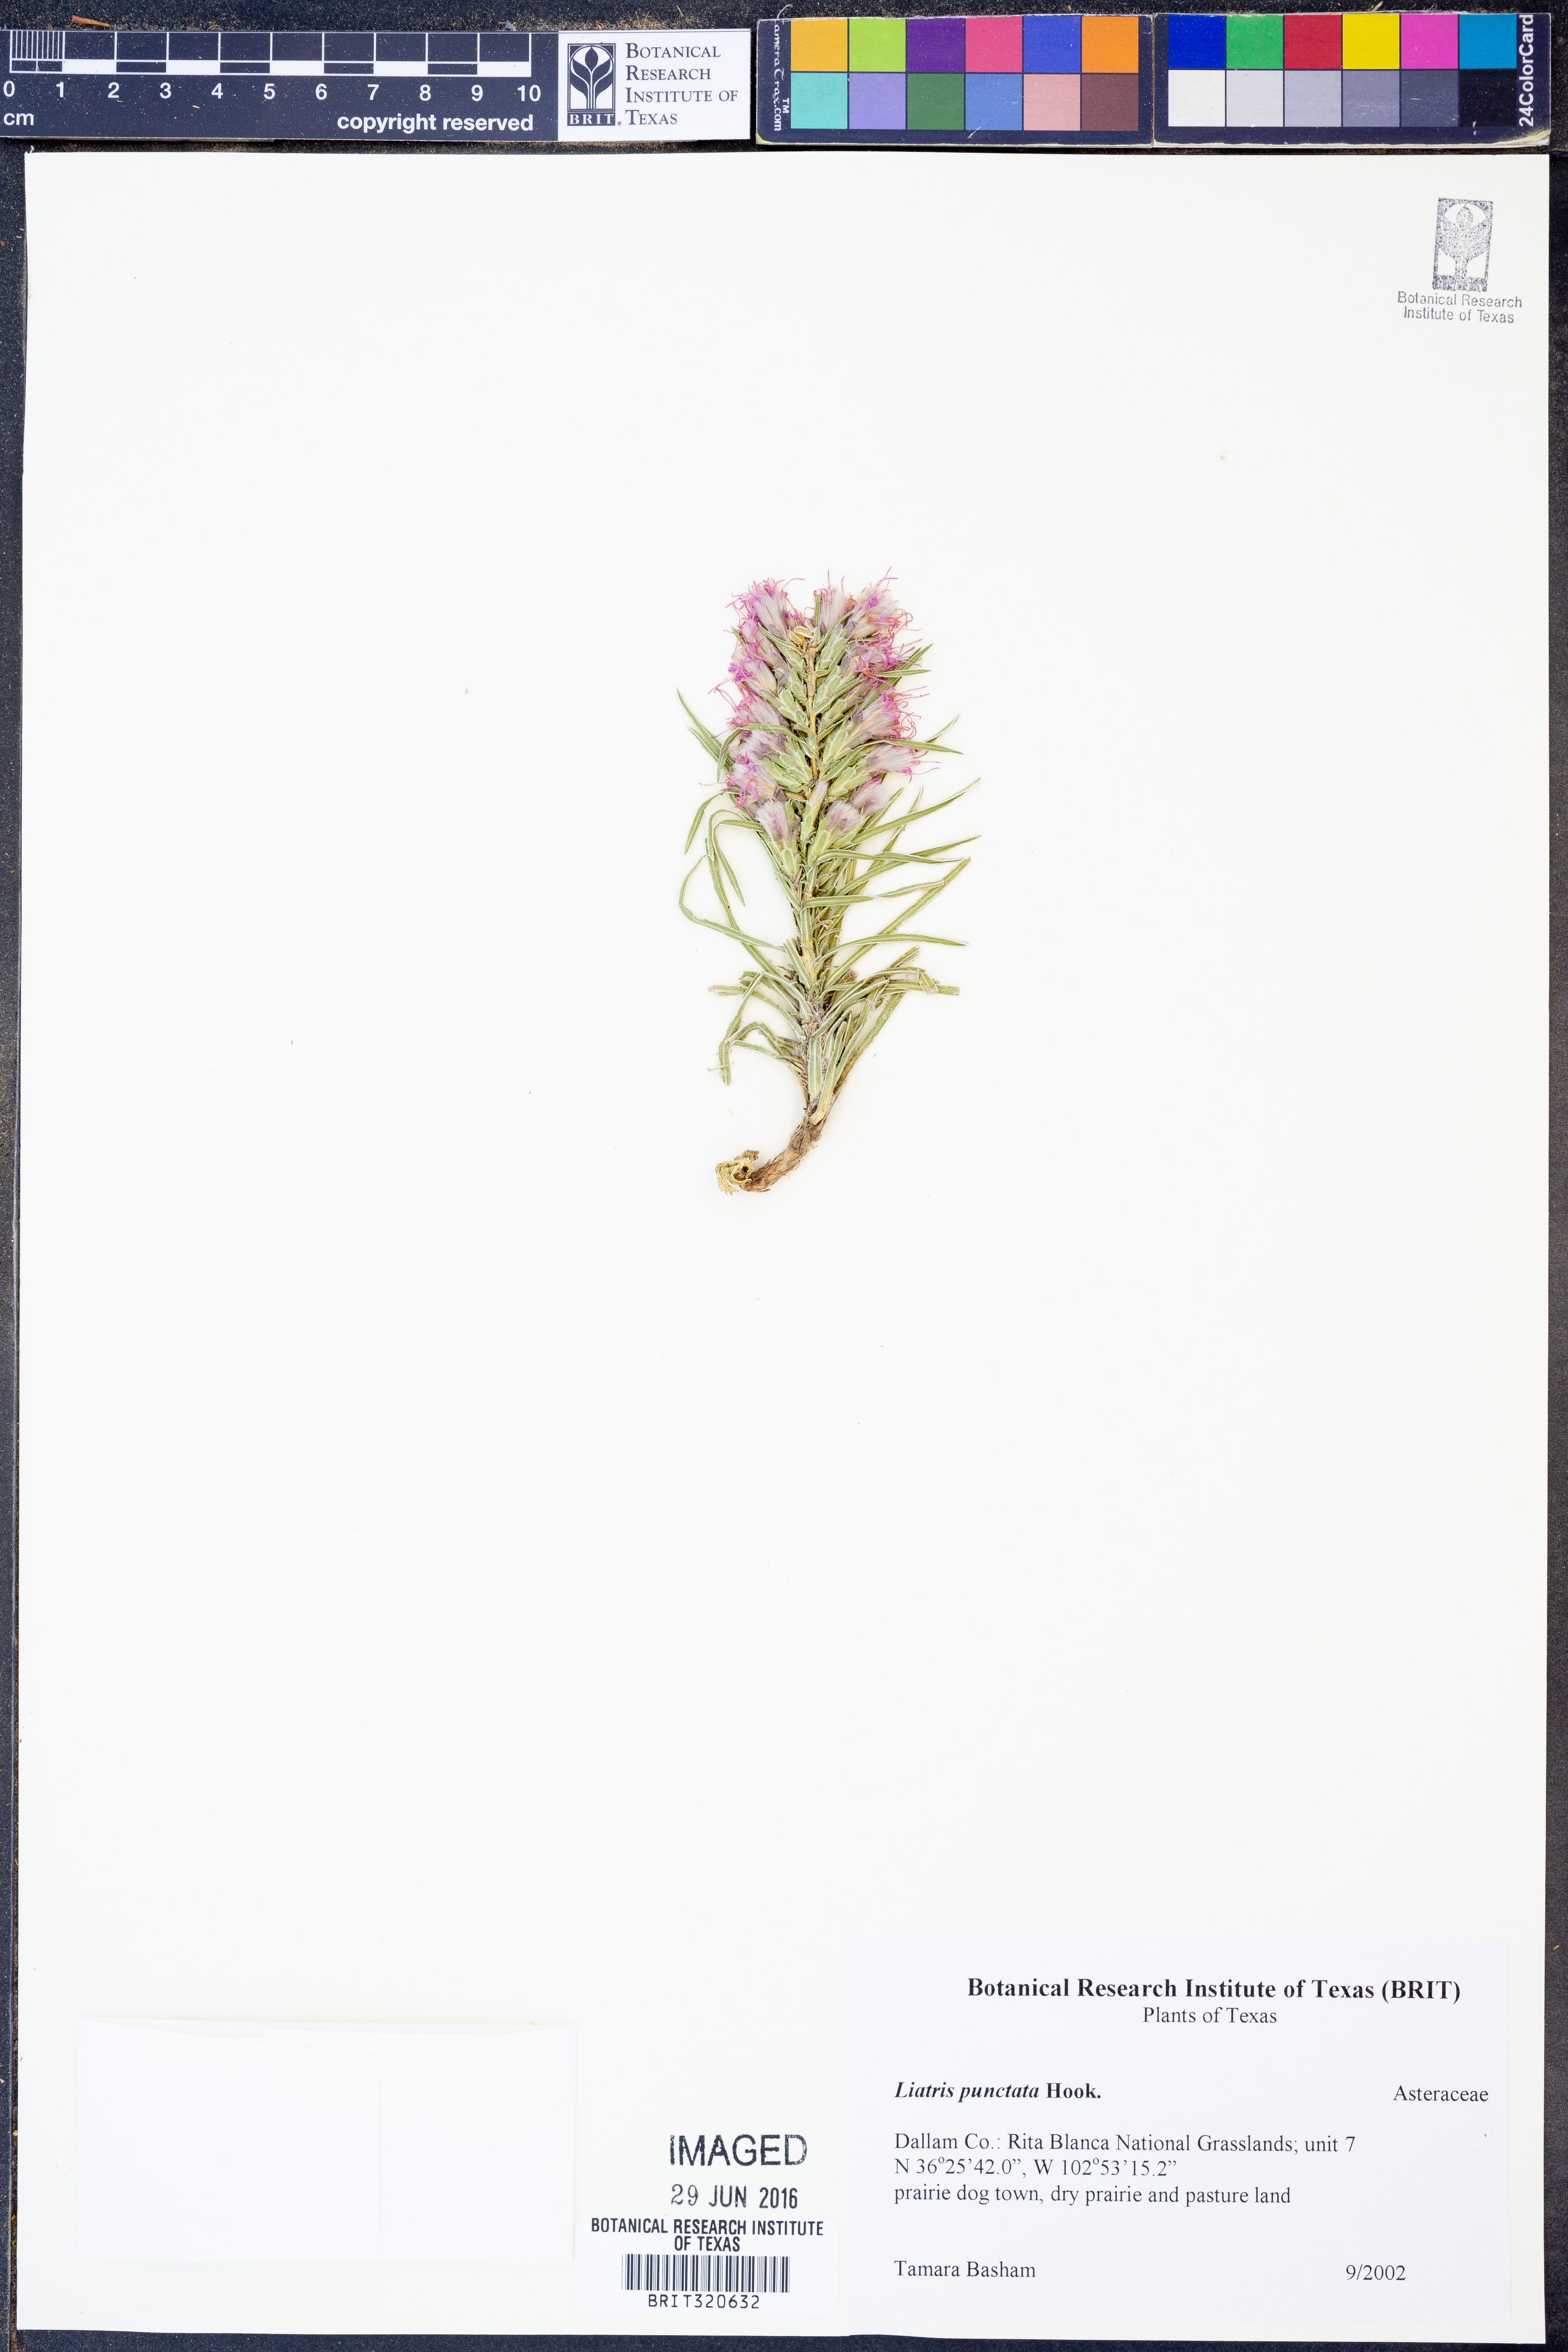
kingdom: Plantae
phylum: Tracheophyta
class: Magnoliopsida
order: Asterales
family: Asteraceae
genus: Liatris
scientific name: Liatris punctata
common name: Dotted gayfeather
